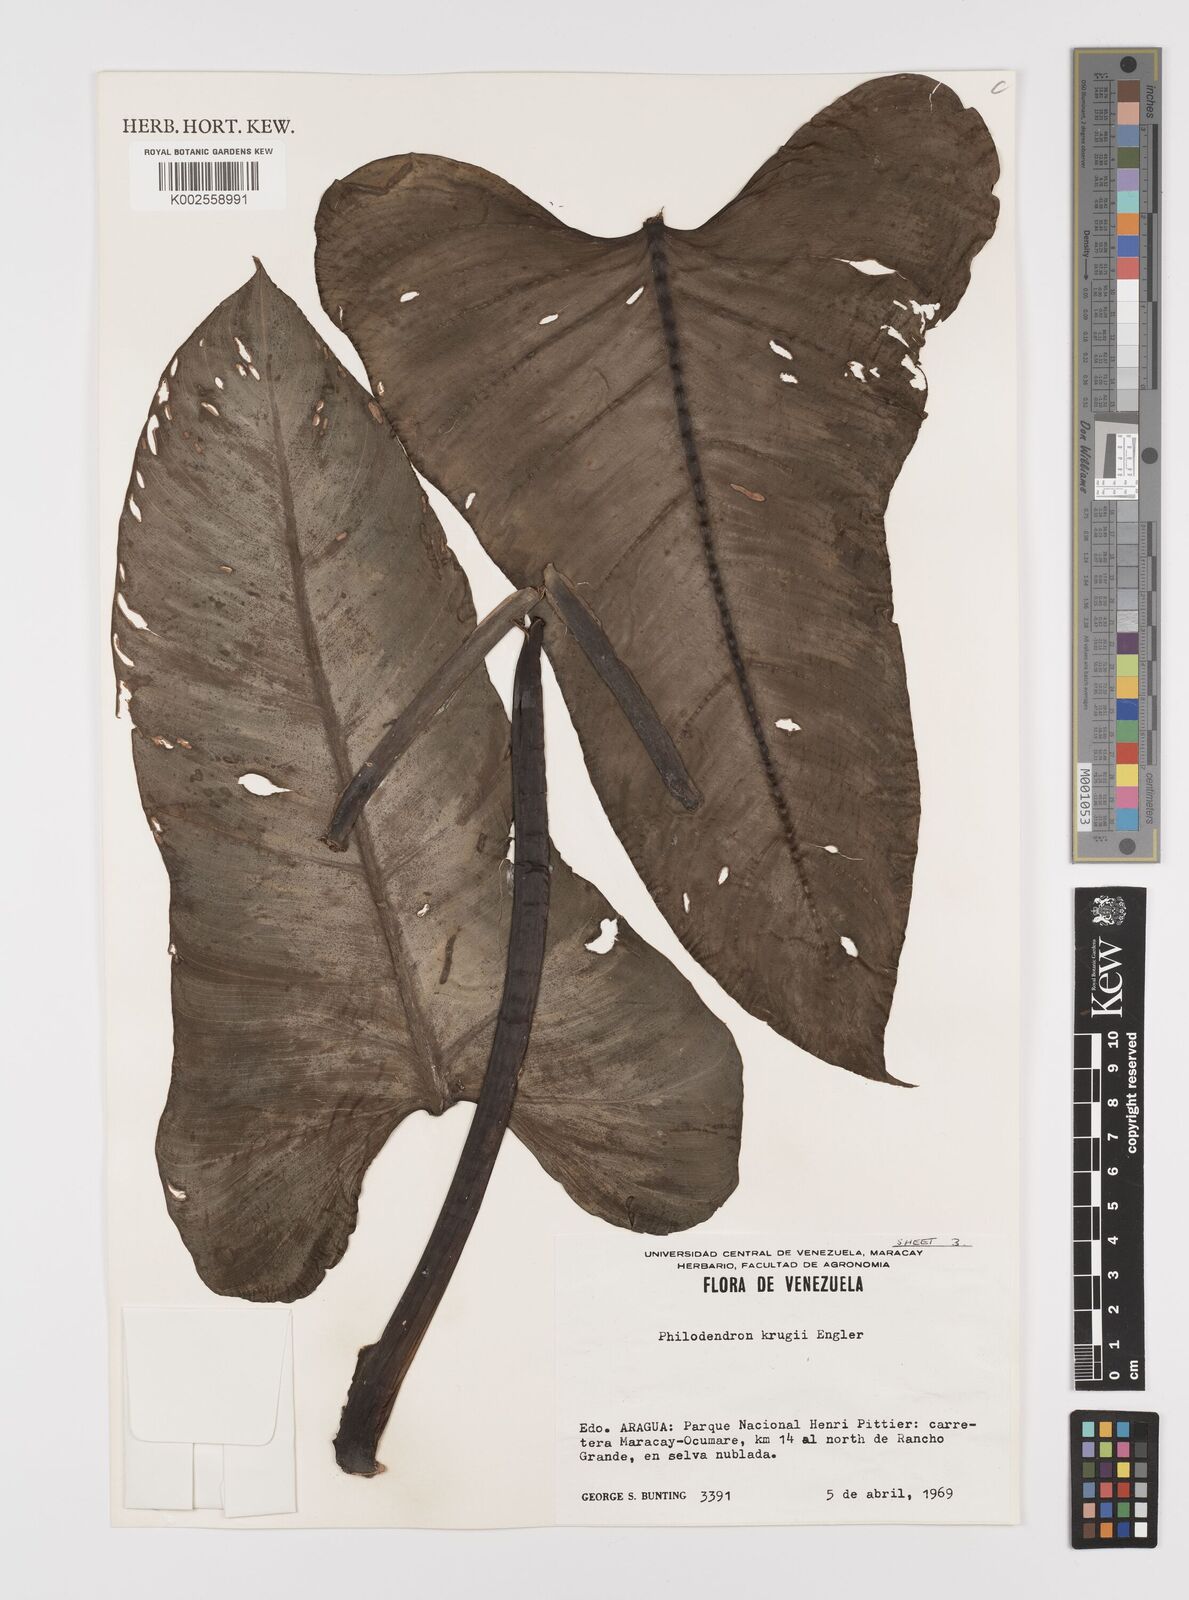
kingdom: Plantae
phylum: Tracheophyta
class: Liliopsida
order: Alismatales
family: Araceae
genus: Philodendron
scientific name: Philodendron krugii
